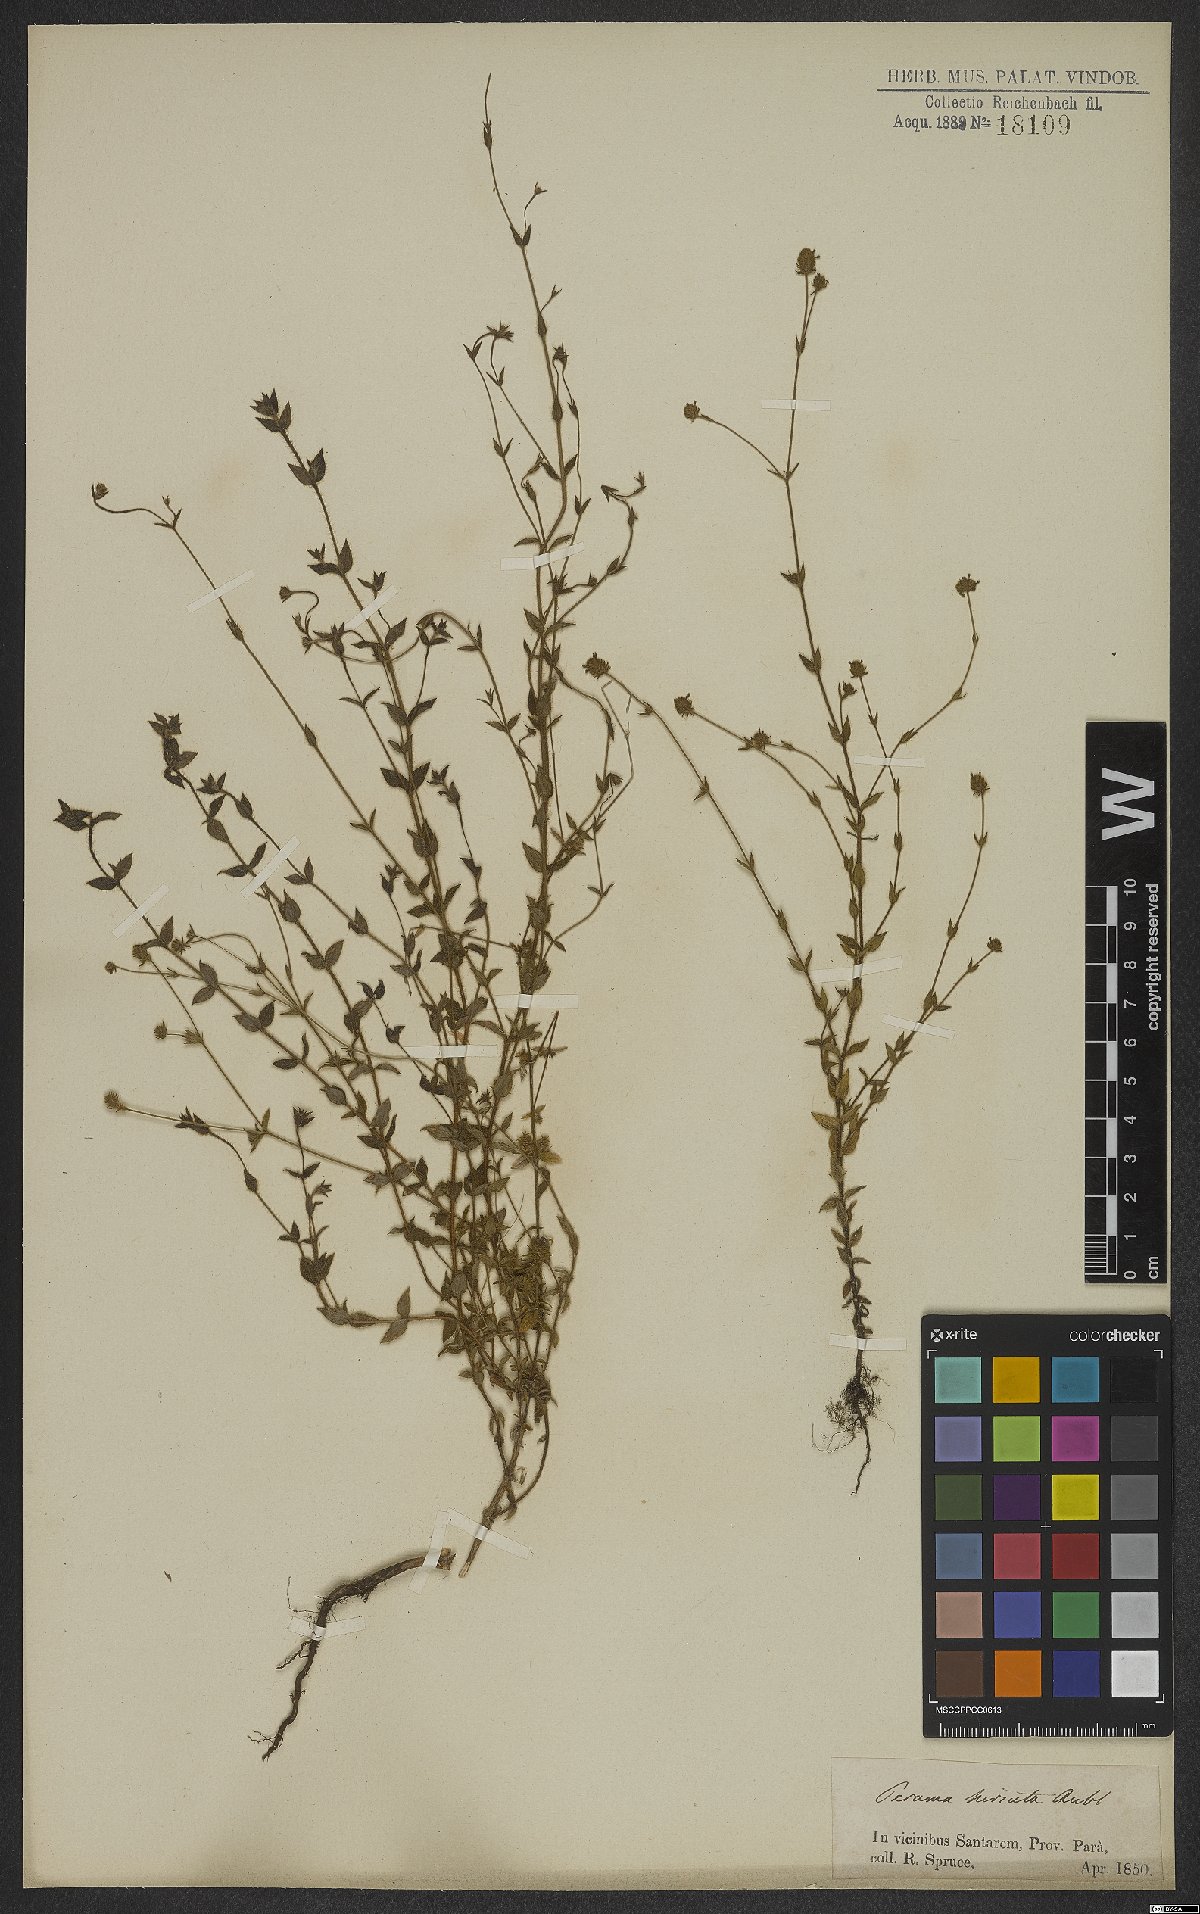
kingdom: Plantae
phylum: Tracheophyta
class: Magnoliopsida
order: Gentianales
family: Rubiaceae
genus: Perama
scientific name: Perama hirsuta
